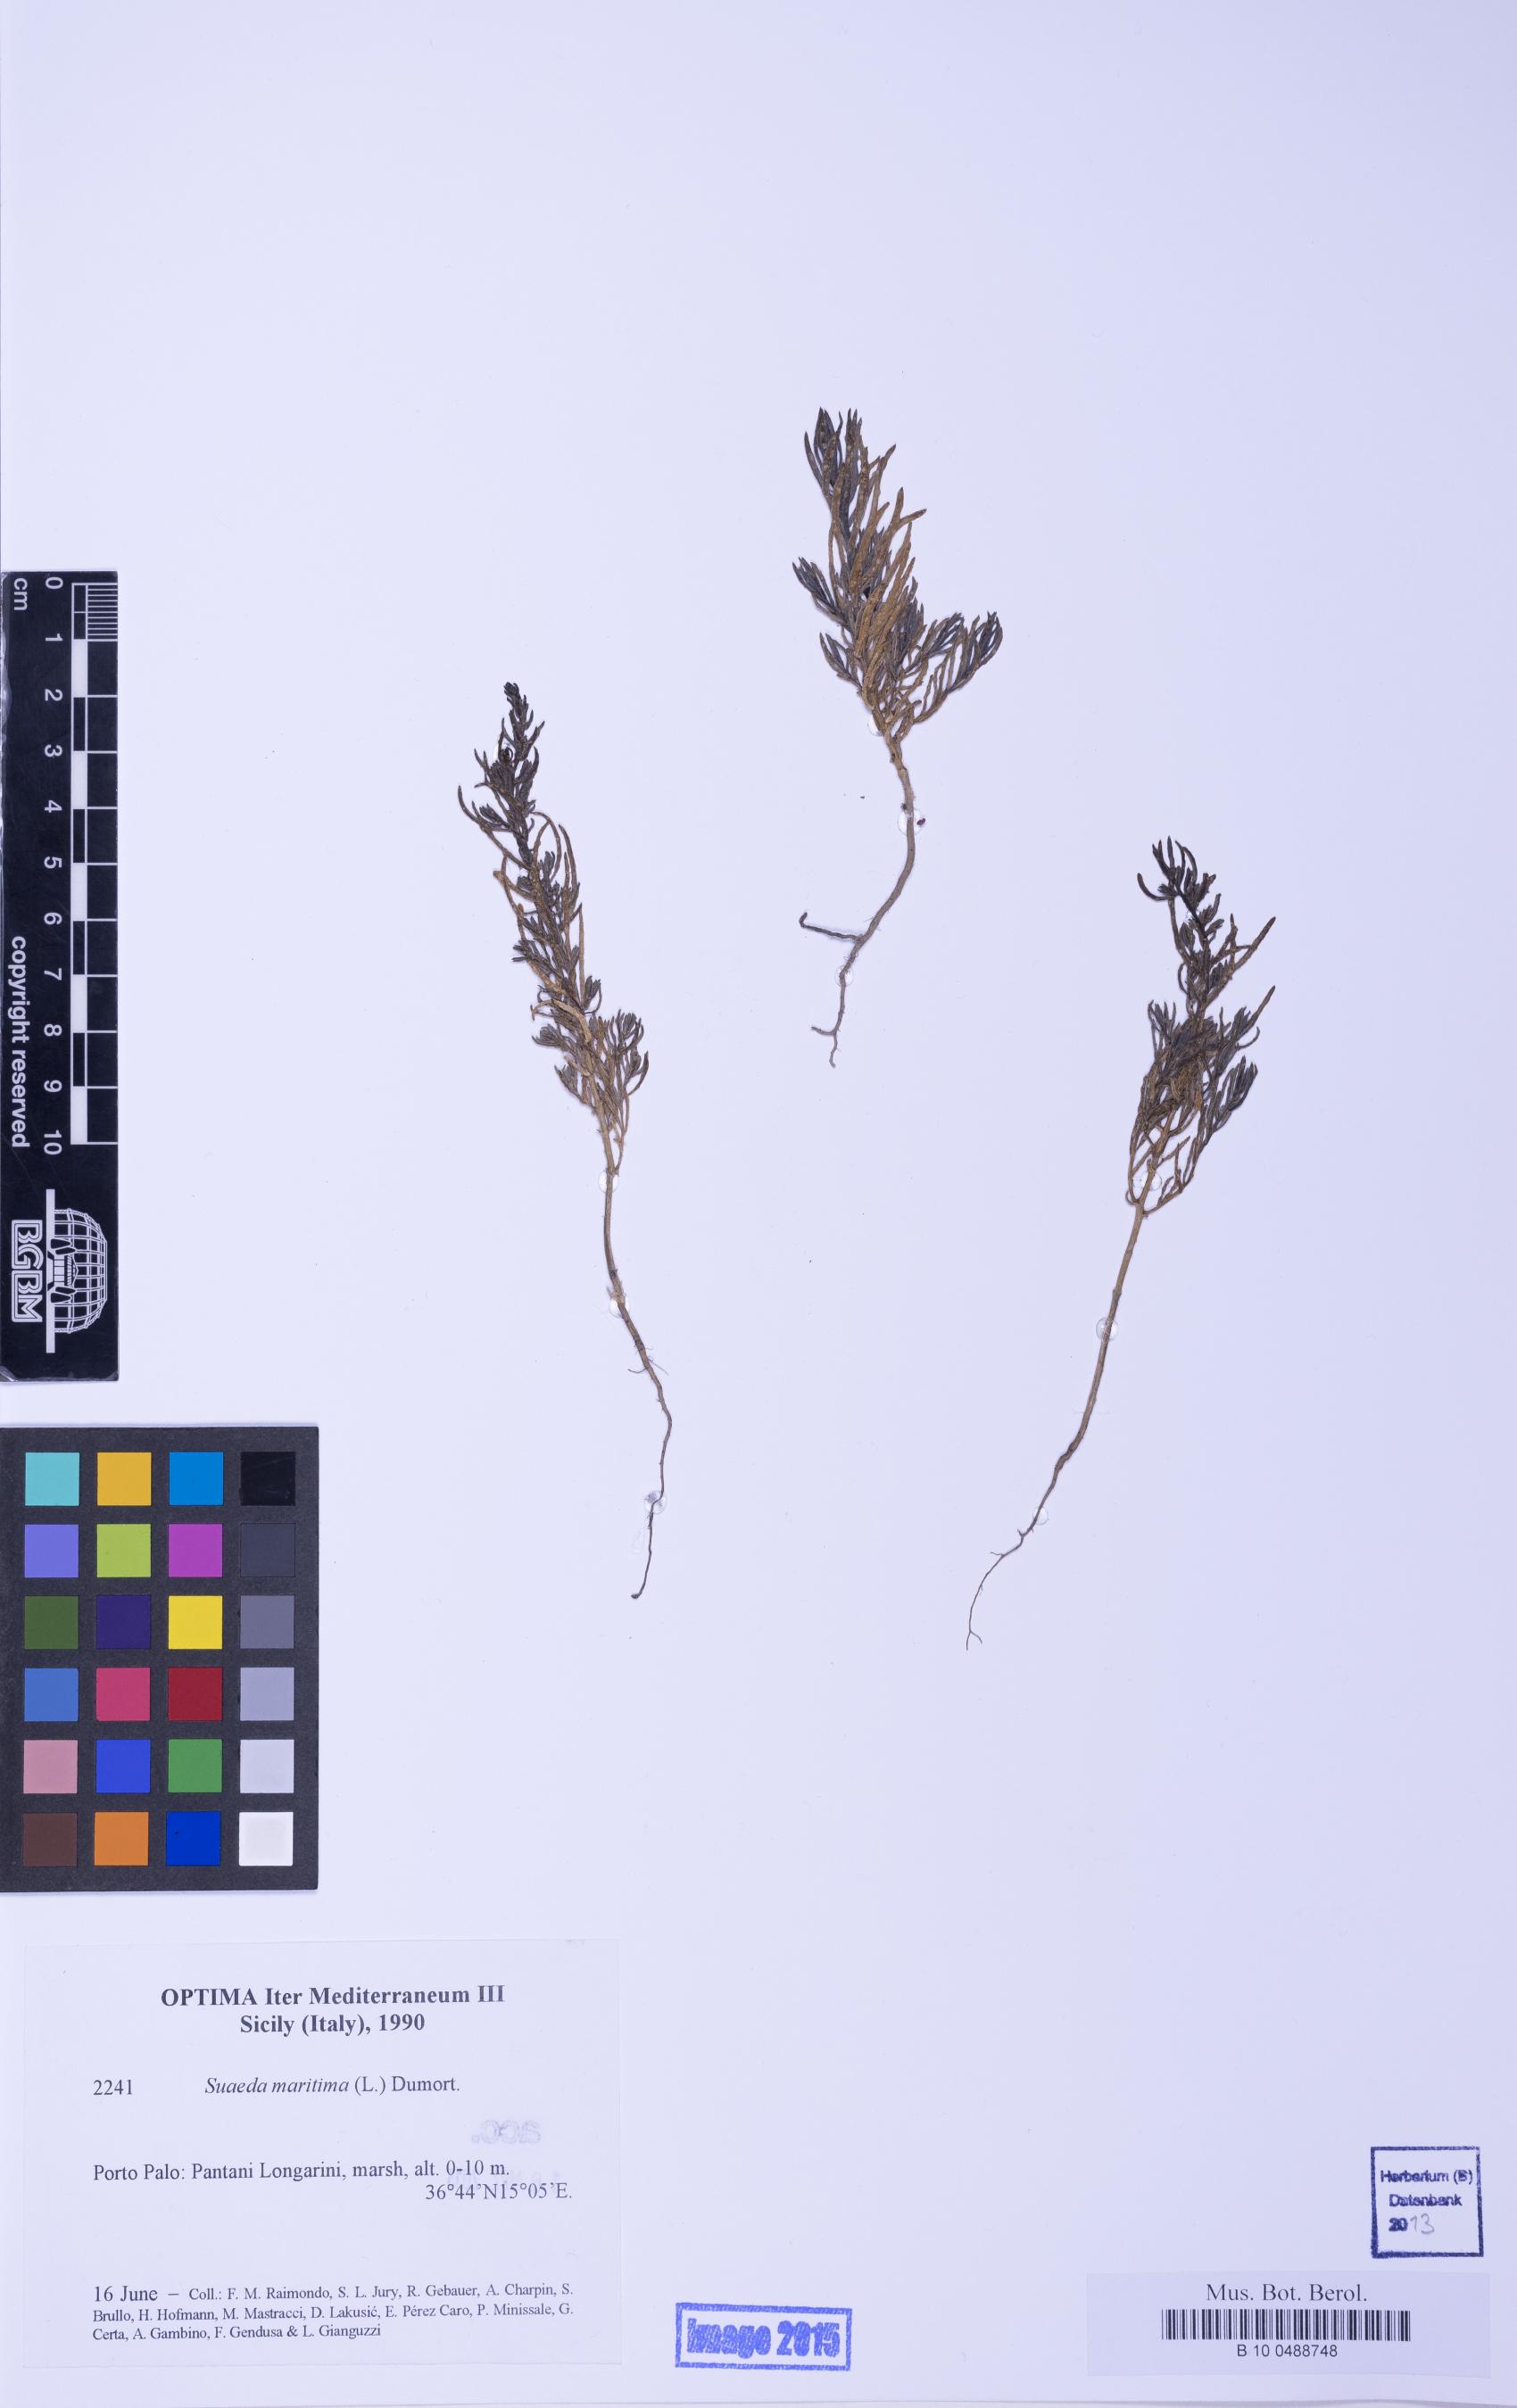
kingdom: Plantae
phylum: Tracheophyta
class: Magnoliopsida
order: Caryophyllales
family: Amaranthaceae
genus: Suaeda
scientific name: Suaeda maritima
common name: Annual sea-blite
